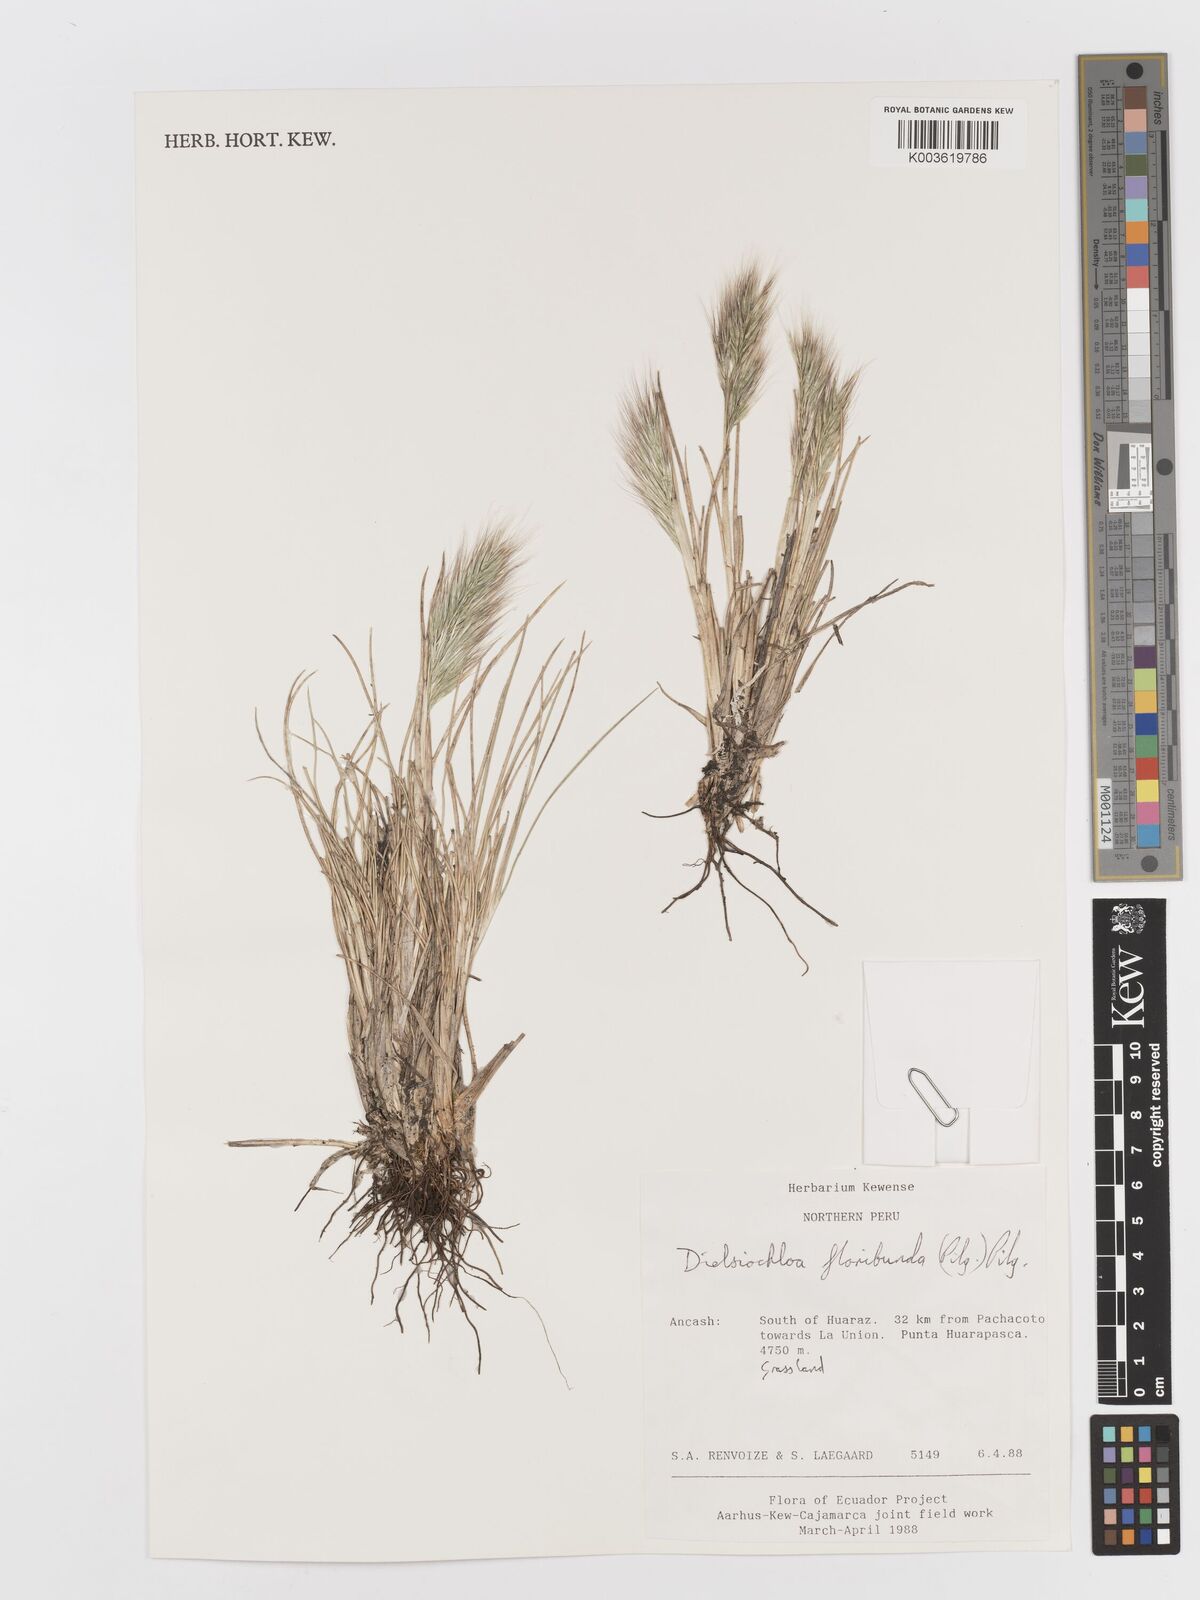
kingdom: Plantae
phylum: Tracheophyta
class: Liliopsida
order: Poales
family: Poaceae
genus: Festuca
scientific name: Festuca floribunda
